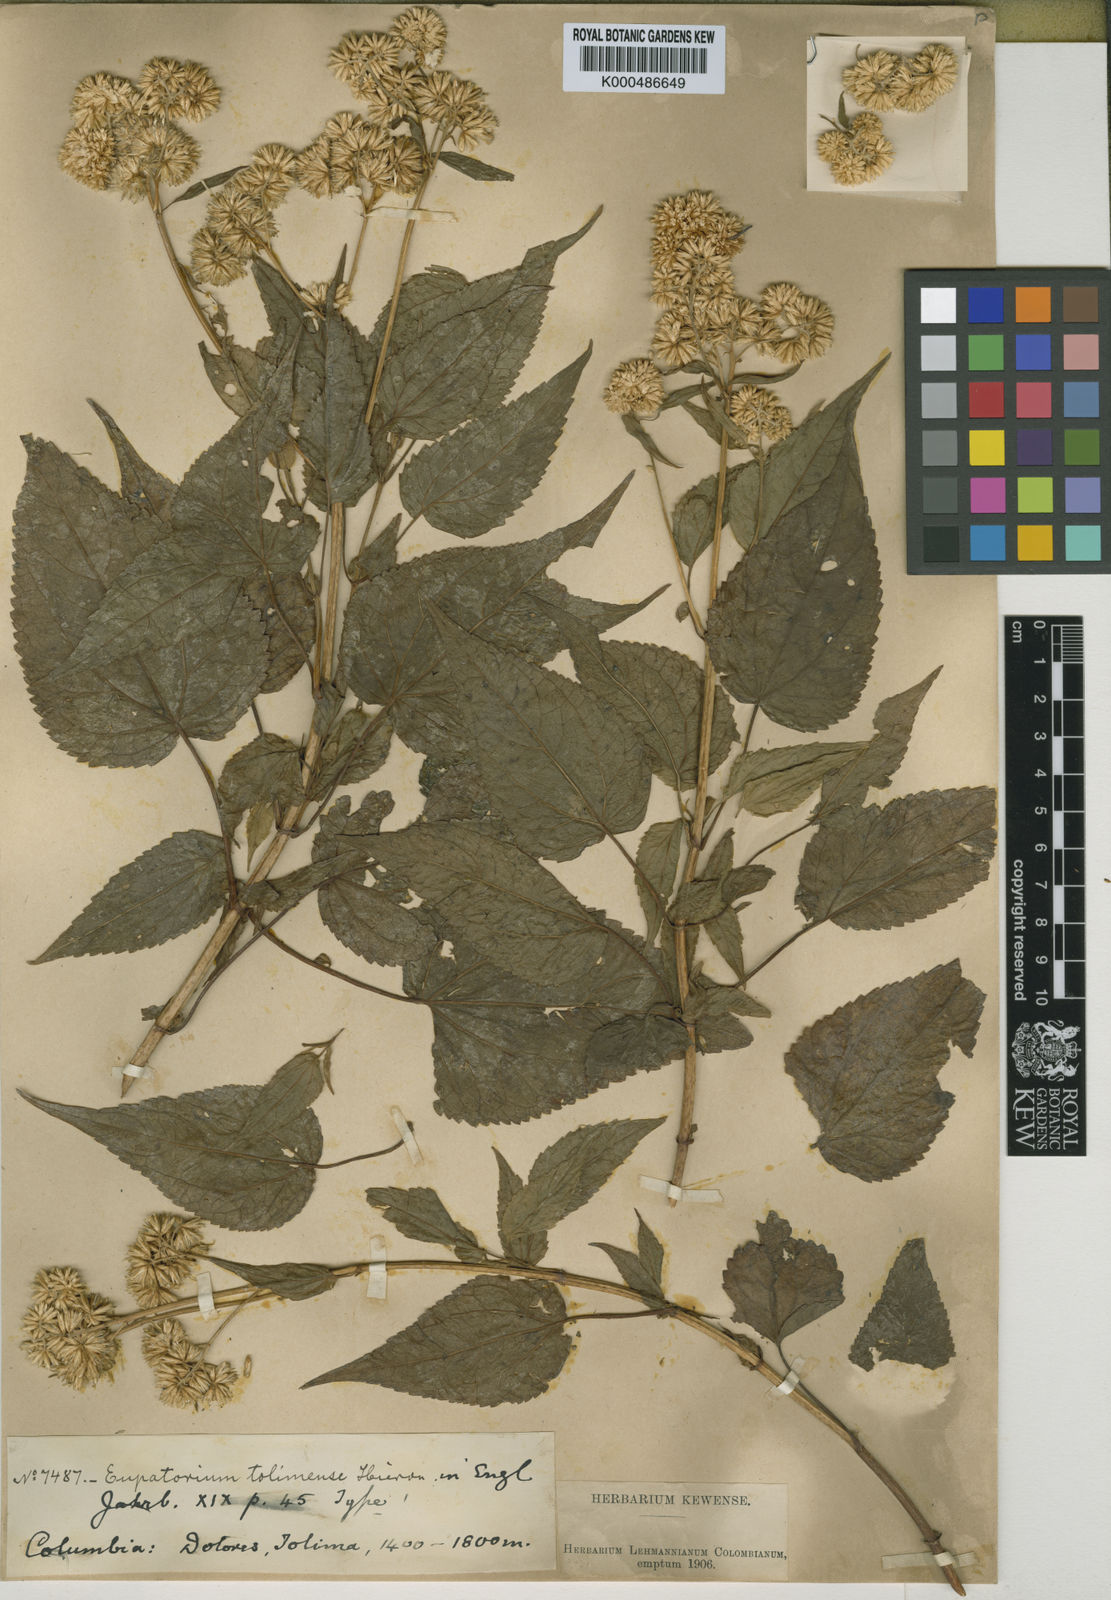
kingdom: Plantae
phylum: Tracheophyta
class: Magnoliopsida
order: Asterales
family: Asteraceae
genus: Critoniella
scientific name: Critoniella acuminata
